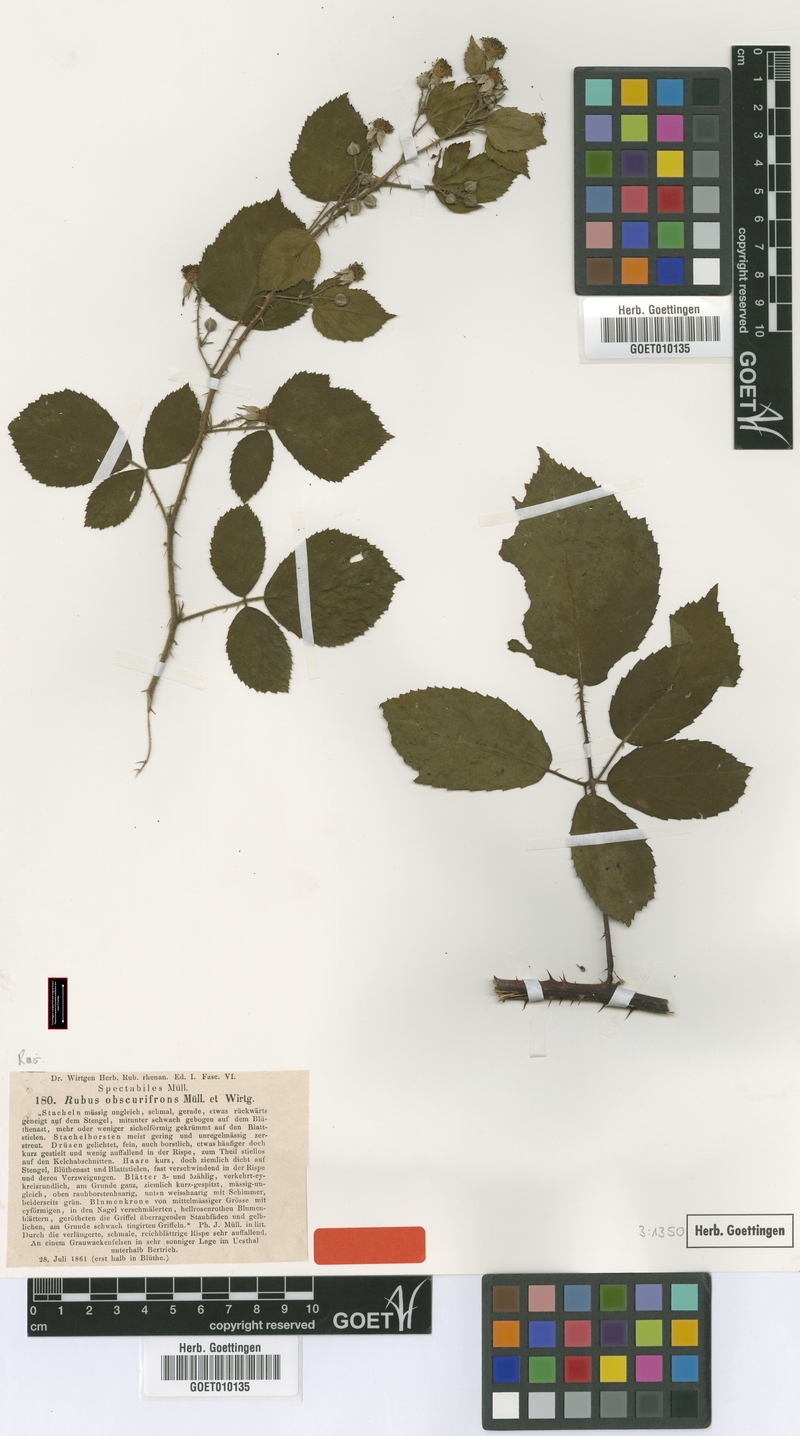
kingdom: Plantae
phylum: Tracheophyta
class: Magnoliopsida
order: Rosales
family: Rosaceae
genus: Rubus
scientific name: Rubus festivus
